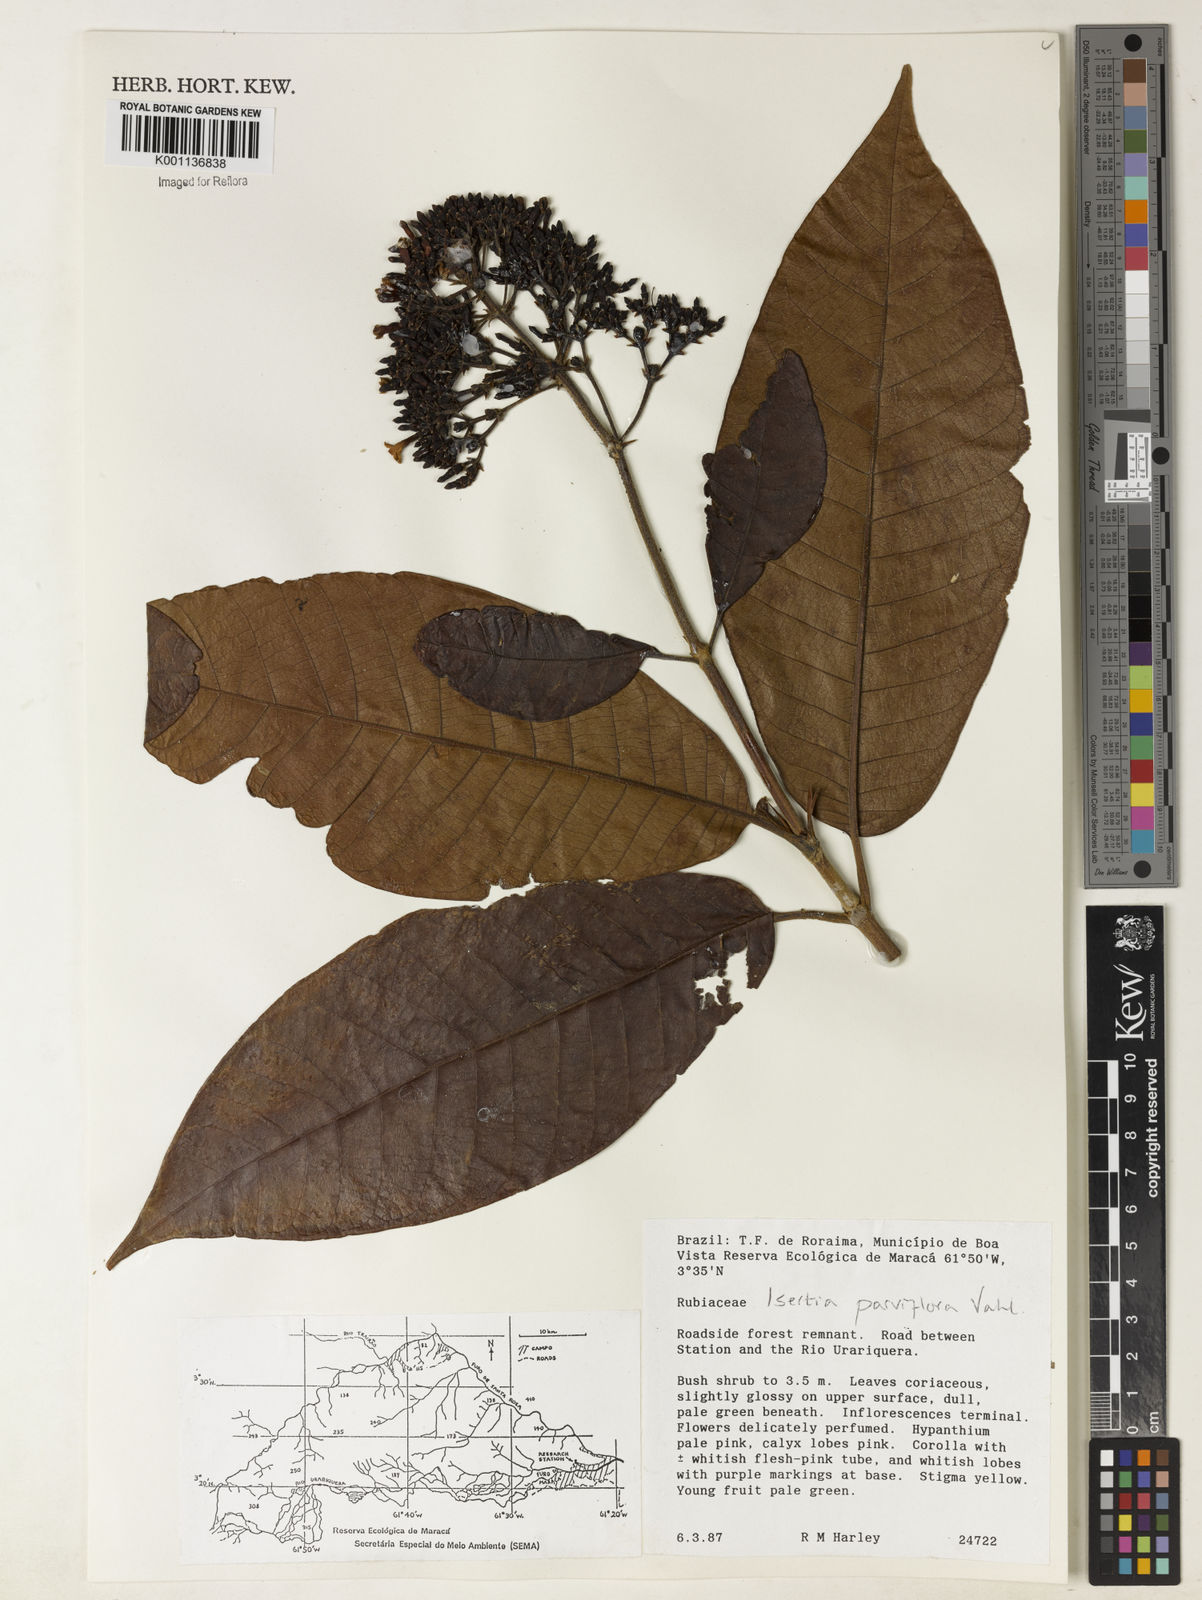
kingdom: Plantae
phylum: Tracheophyta
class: Magnoliopsida
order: Gentianales
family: Rubiaceae
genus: Isertia
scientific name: Isertia parviflora
